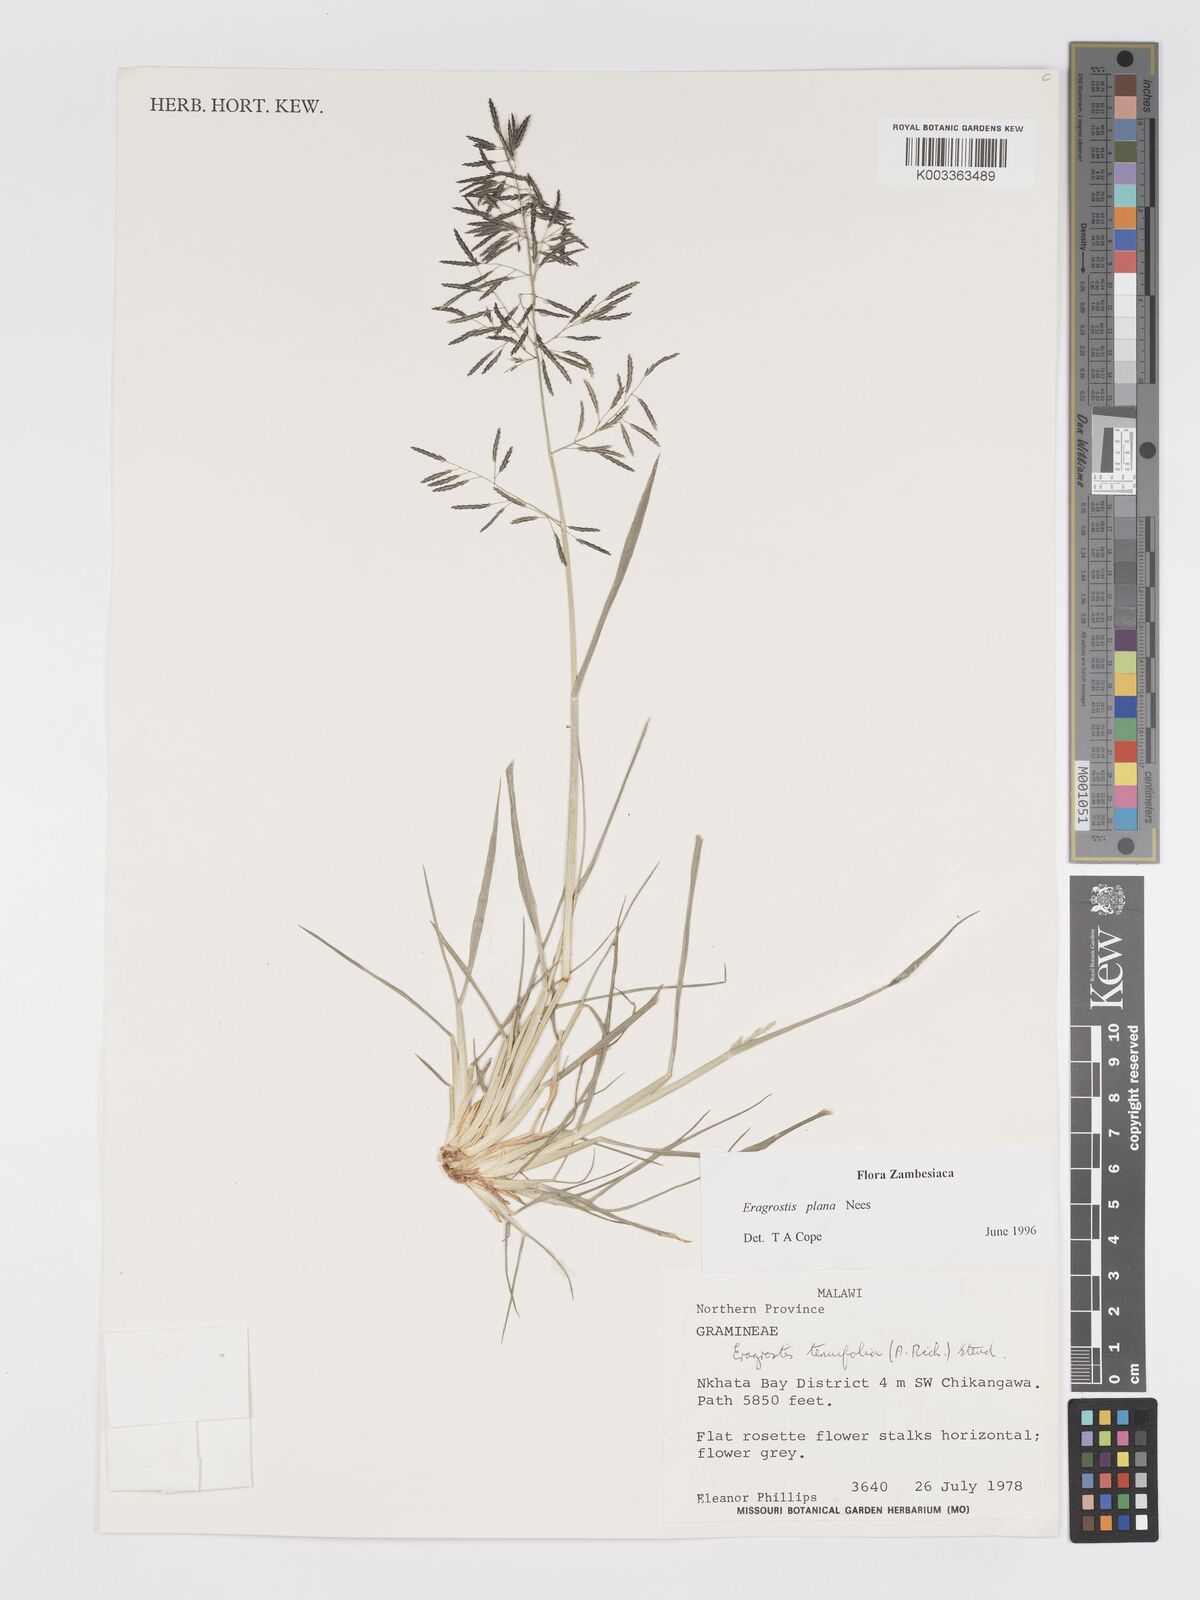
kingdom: Plantae
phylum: Tracheophyta
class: Liliopsida
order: Poales
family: Poaceae
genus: Eragrostis
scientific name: Eragrostis plana
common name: South african lovegrass
